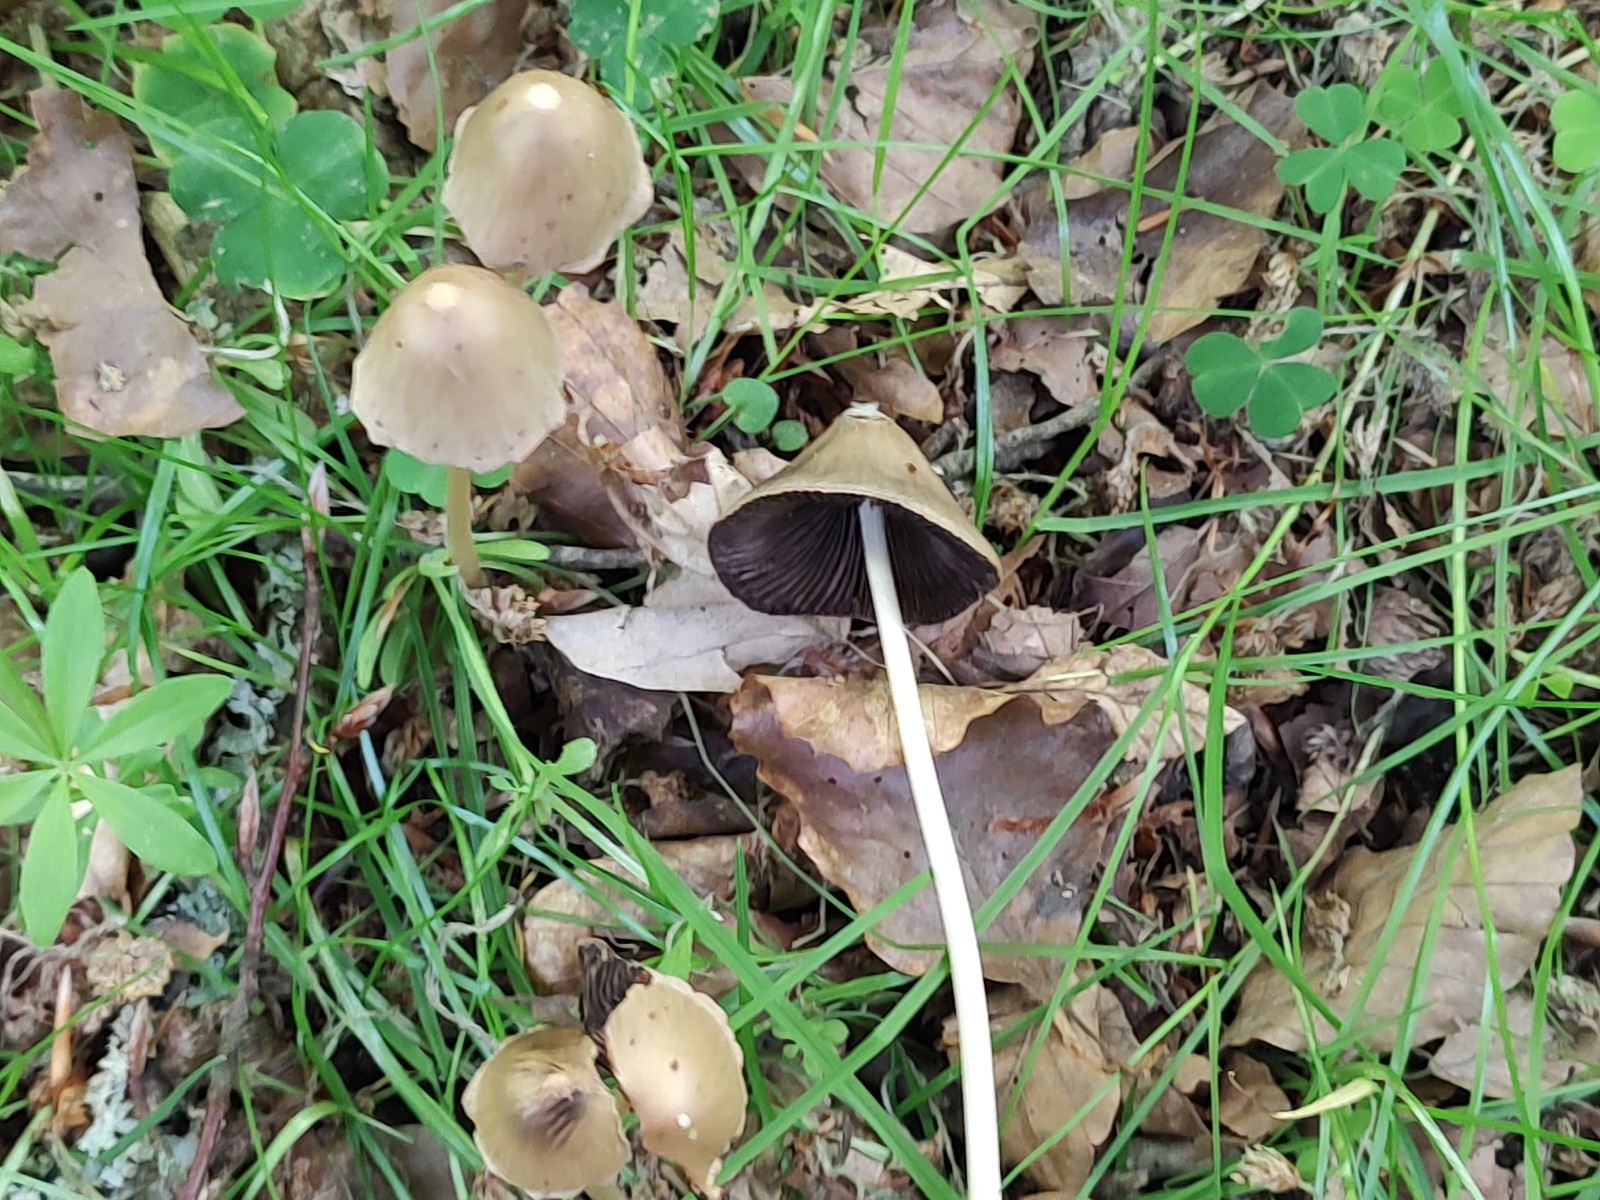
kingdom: Fungi
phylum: Basidiomycota
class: Agaricomycetes
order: Agaricales
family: Psathyrellaceae
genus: Parasola
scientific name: Parasola conopilea
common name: kegle-hjulhat
